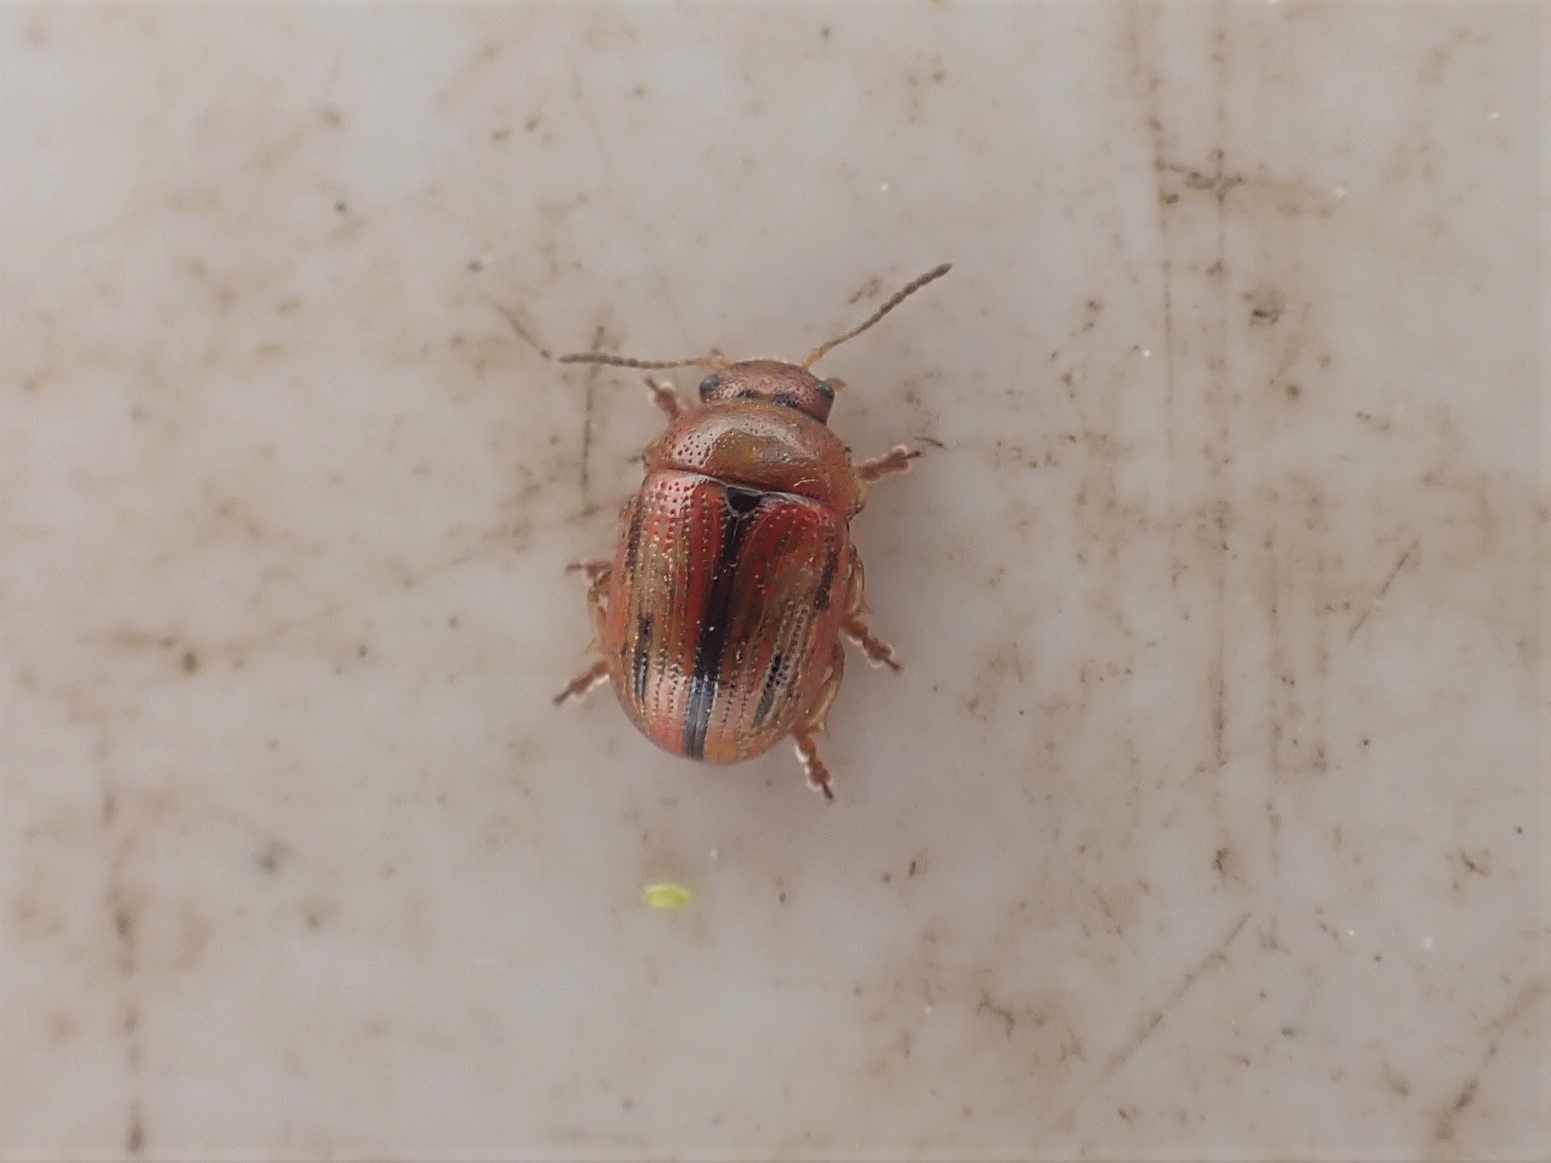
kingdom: Animalia
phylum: Arthropoda
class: Insecta
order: Coleoptera
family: Chrysomelidae
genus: Gonioctena
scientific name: Gonioctena olivacea
